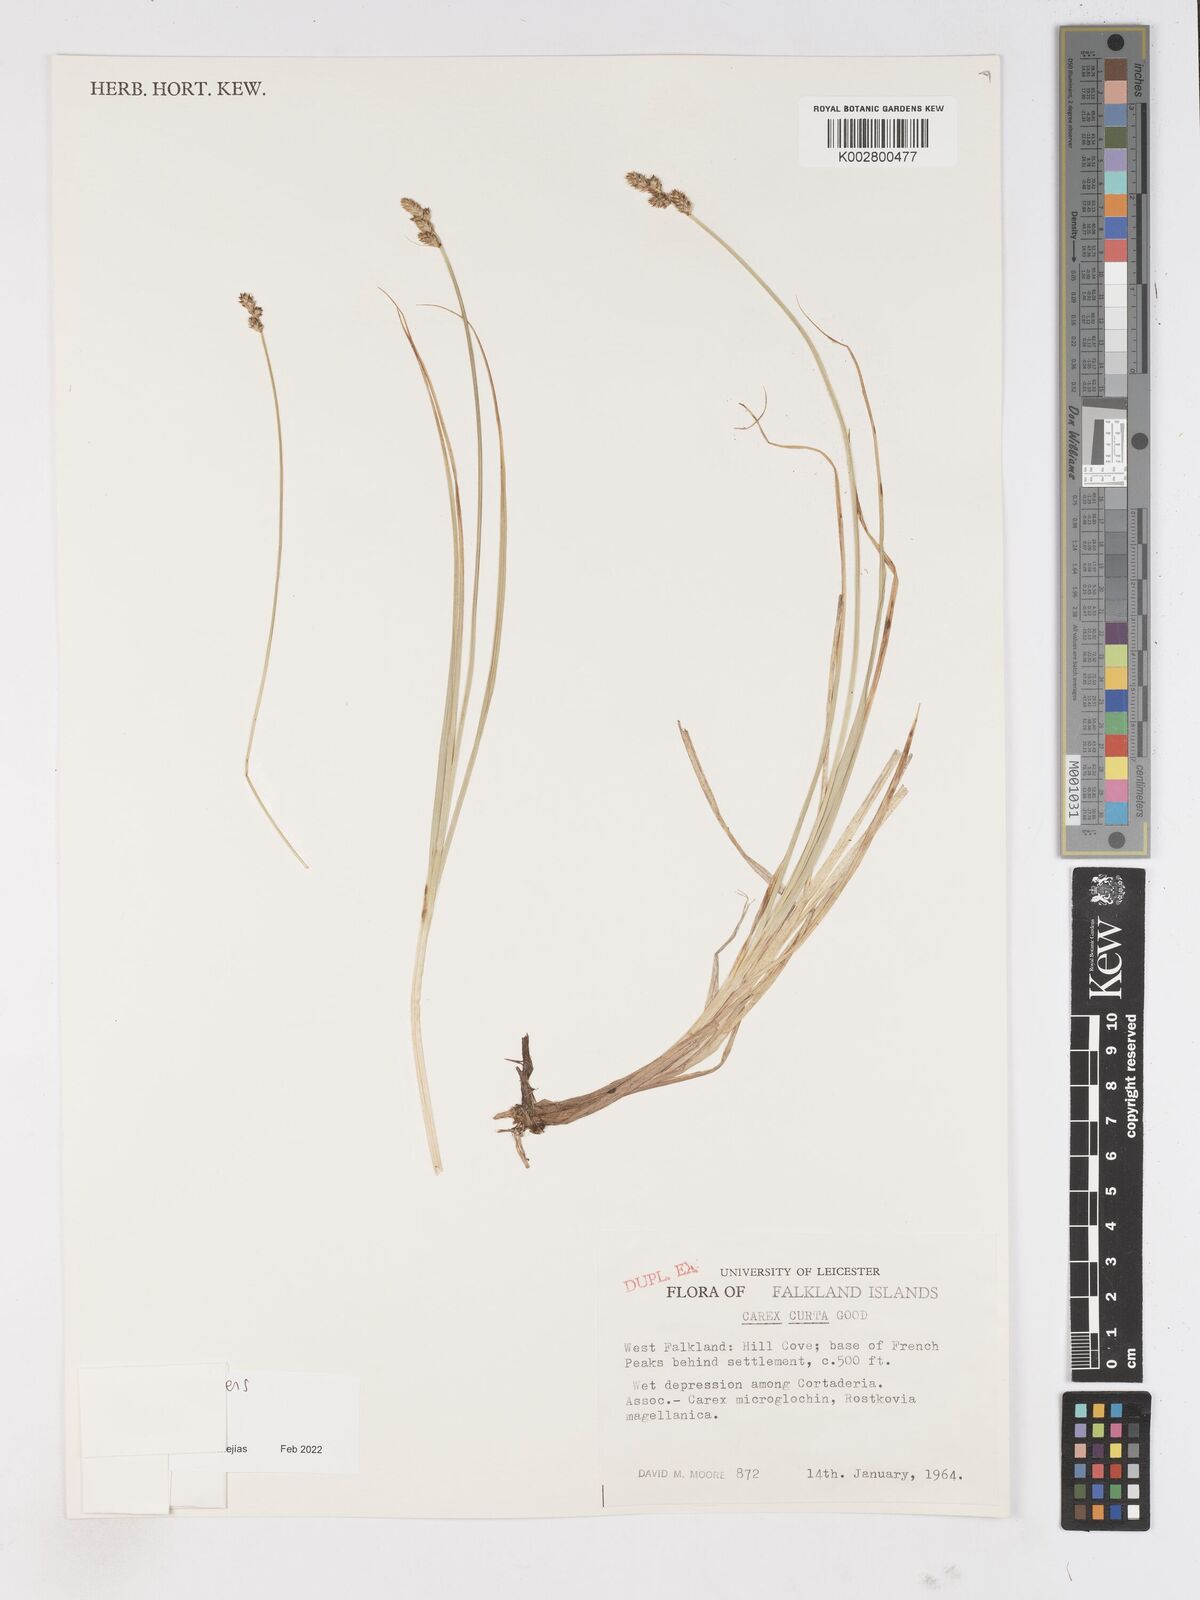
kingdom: Plantae
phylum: Tracheophyta
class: Liliopsida
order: Poales
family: Cyperaceae
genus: Carex
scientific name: Carex curta
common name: White sedge
